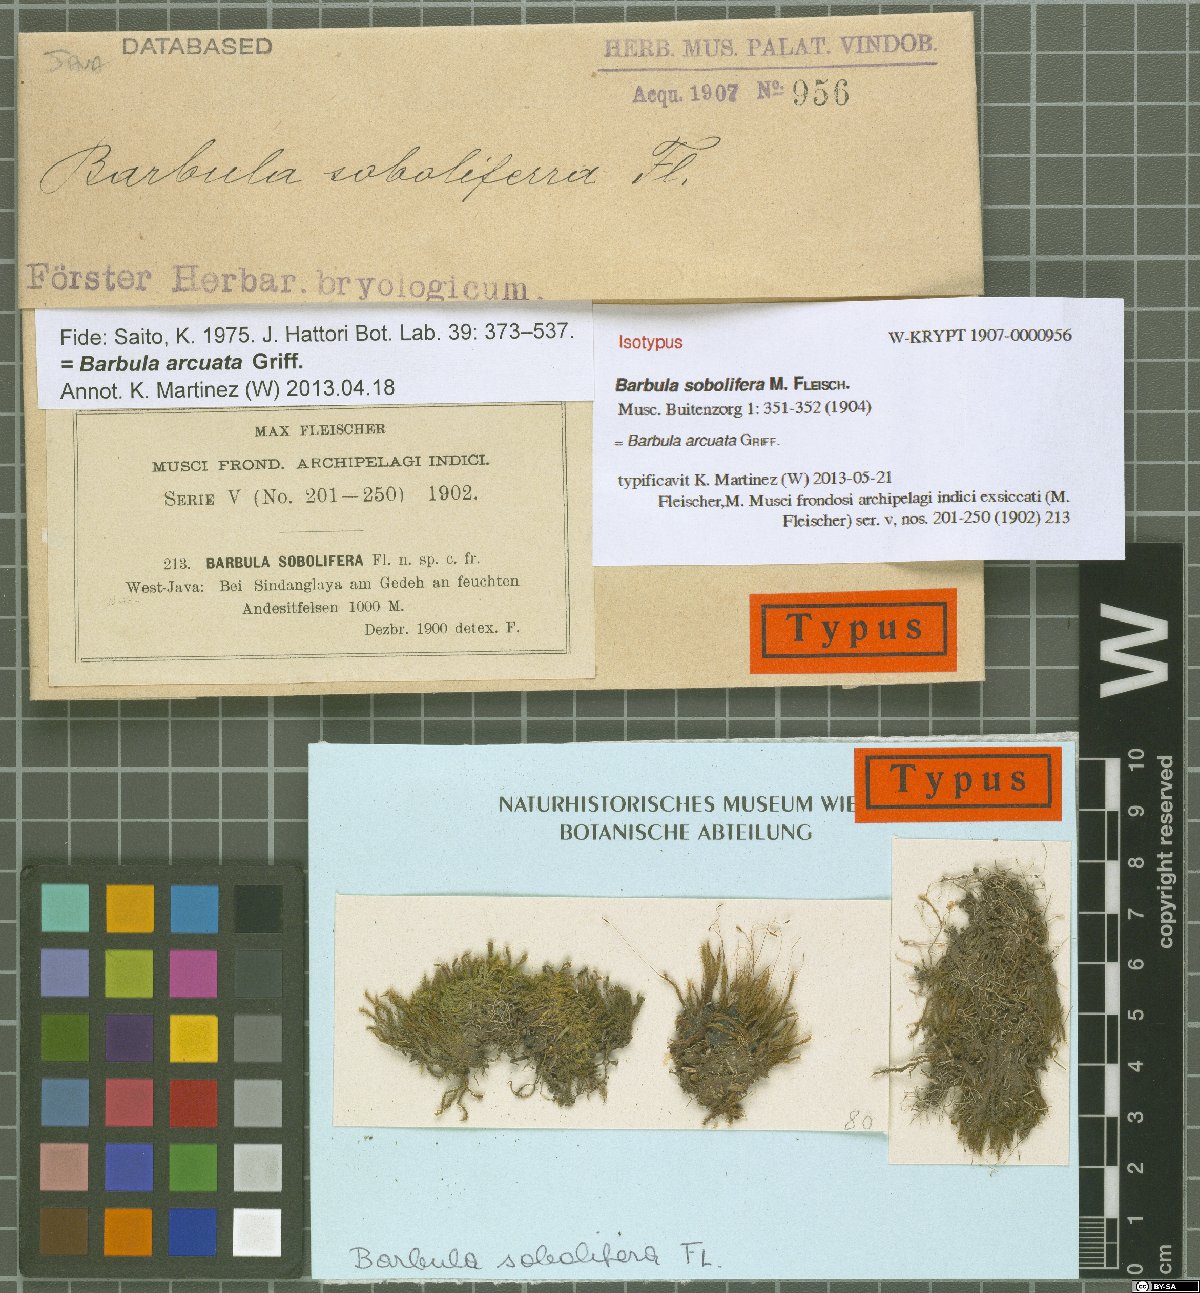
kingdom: Plantae
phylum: Bryophyta
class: Bryopsida
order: Pottiales
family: Pottiaceae
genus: Hydrogonium
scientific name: Hydrogonium arcuatum
